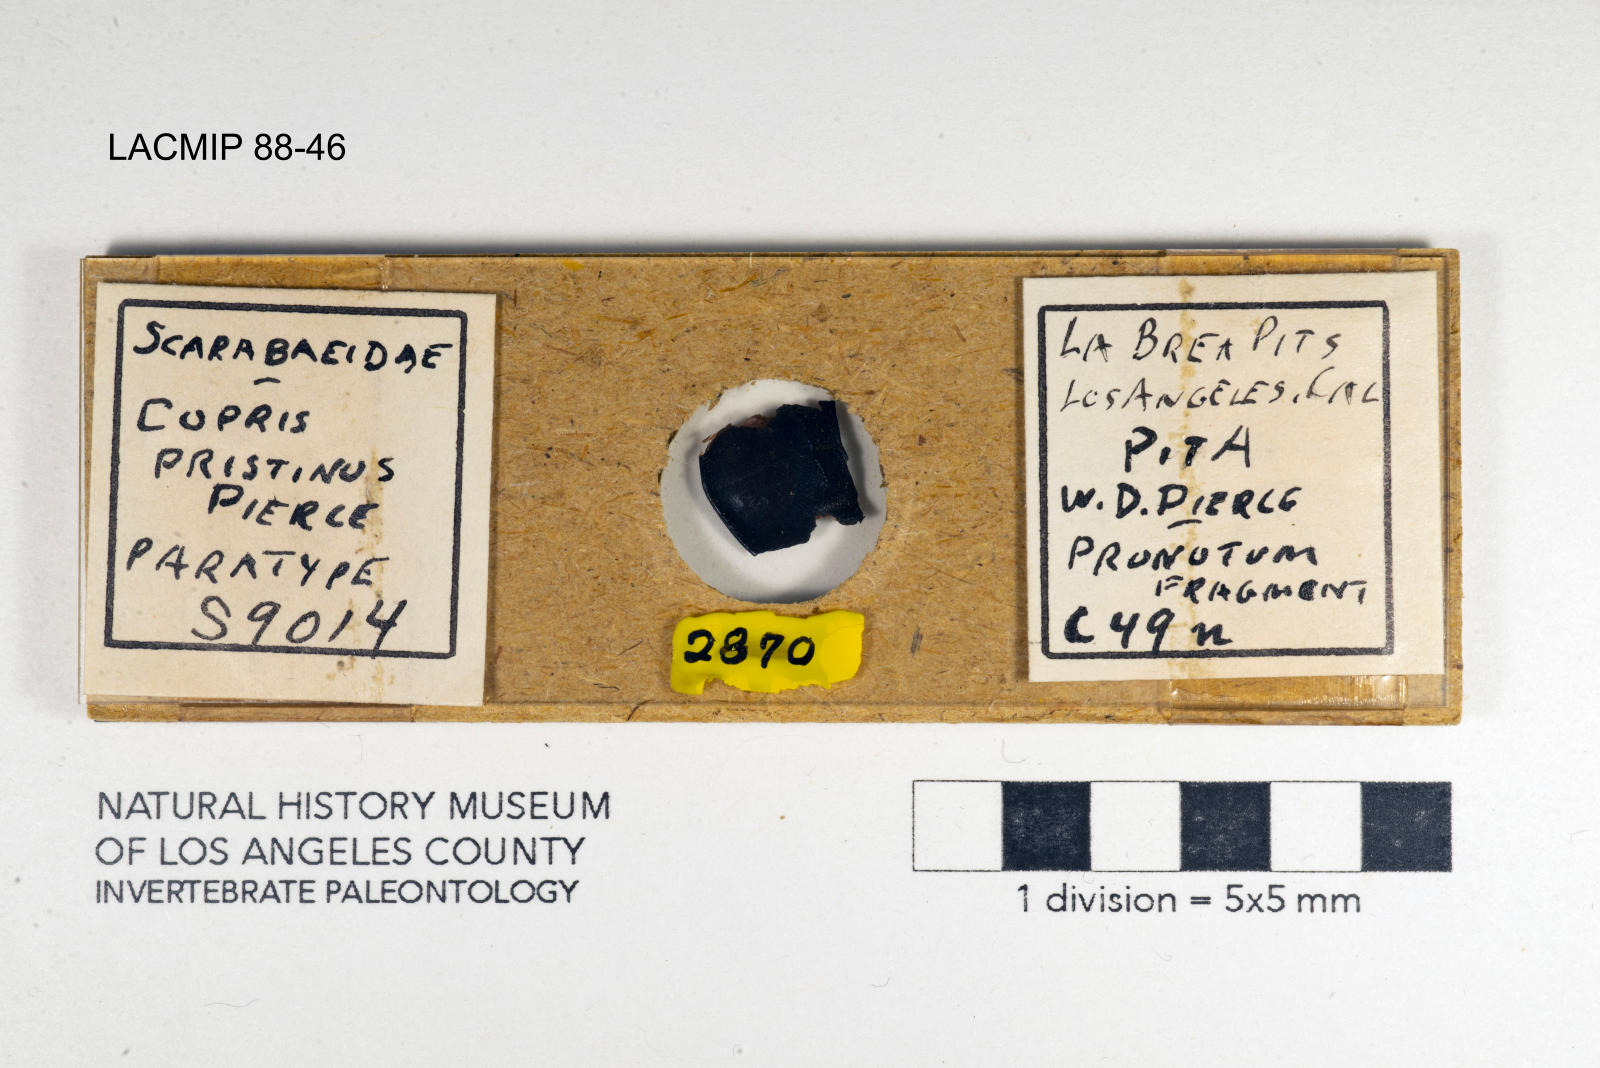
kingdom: Animalia
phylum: Arthropoda
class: Insecta
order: Coleoptera
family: Scarabaeidae
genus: Copris
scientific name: Copris pristinus
